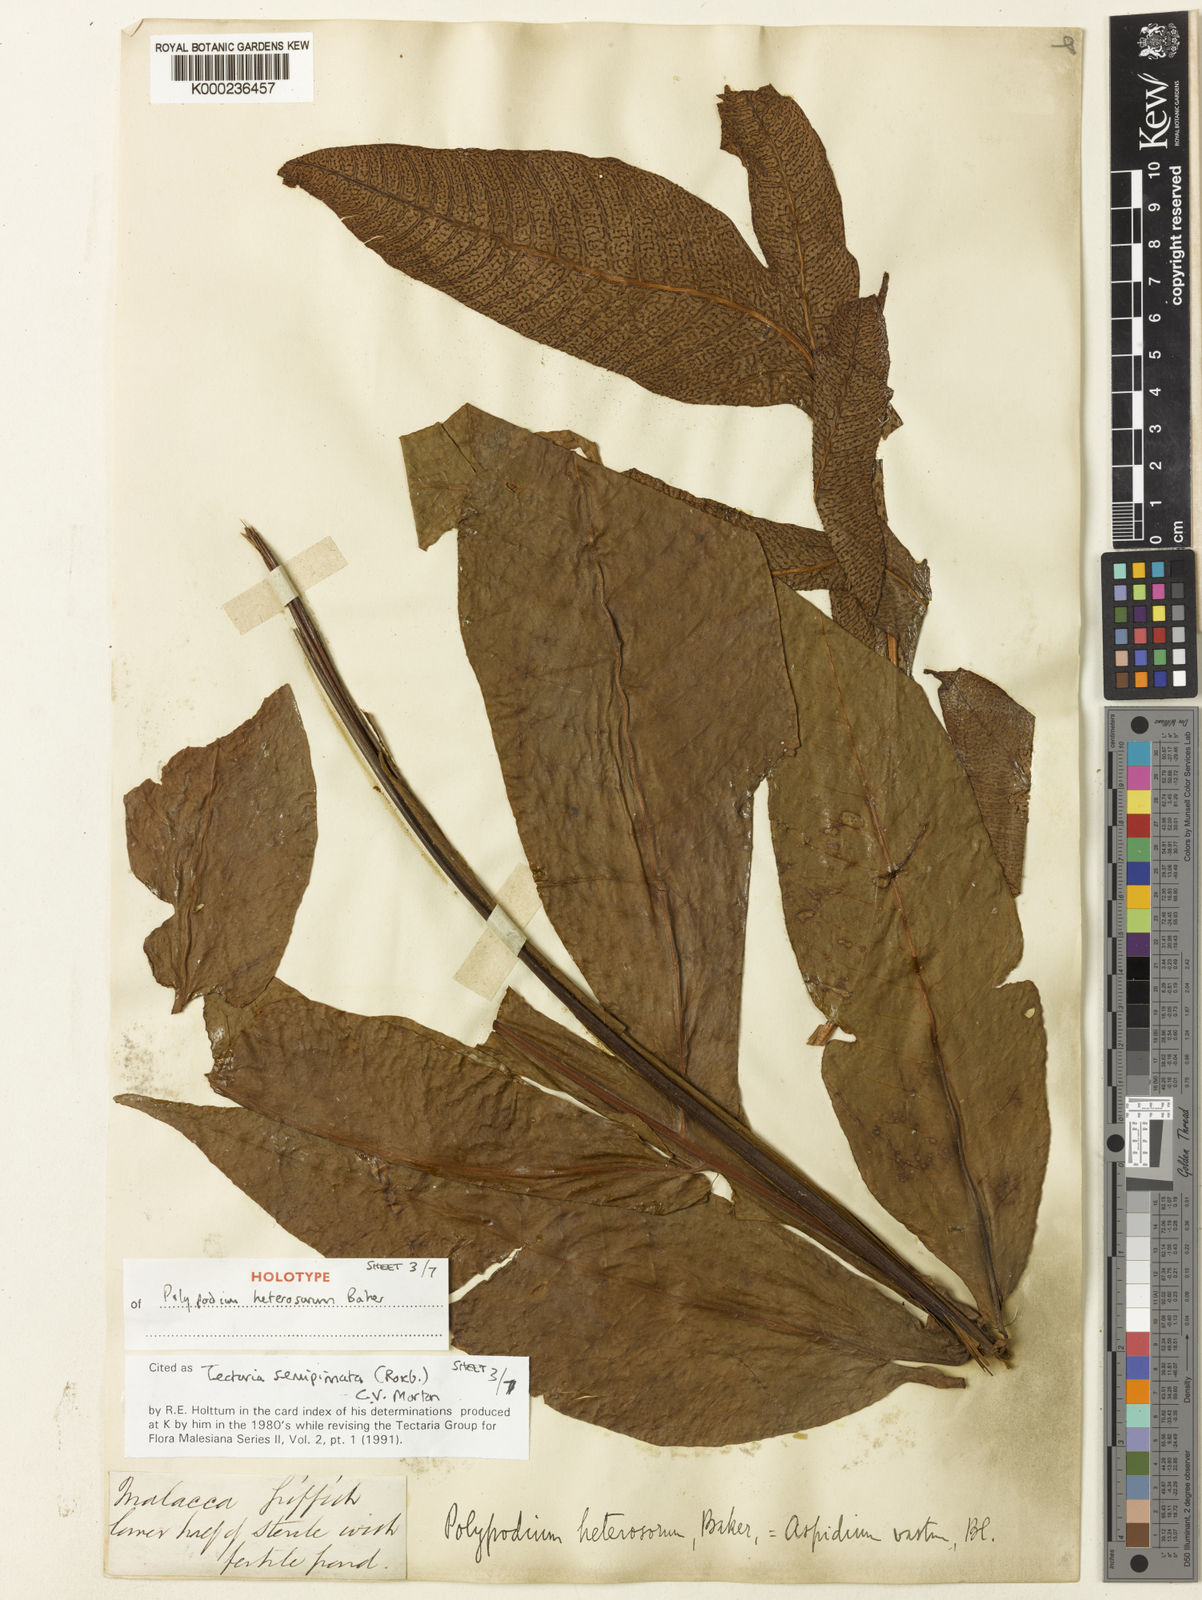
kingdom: Plantae
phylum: Tracheophyta
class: Polypodiopsida
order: Polypodiales
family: Tectariaceae
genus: Tectaria
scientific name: Tectaria semipinnata
